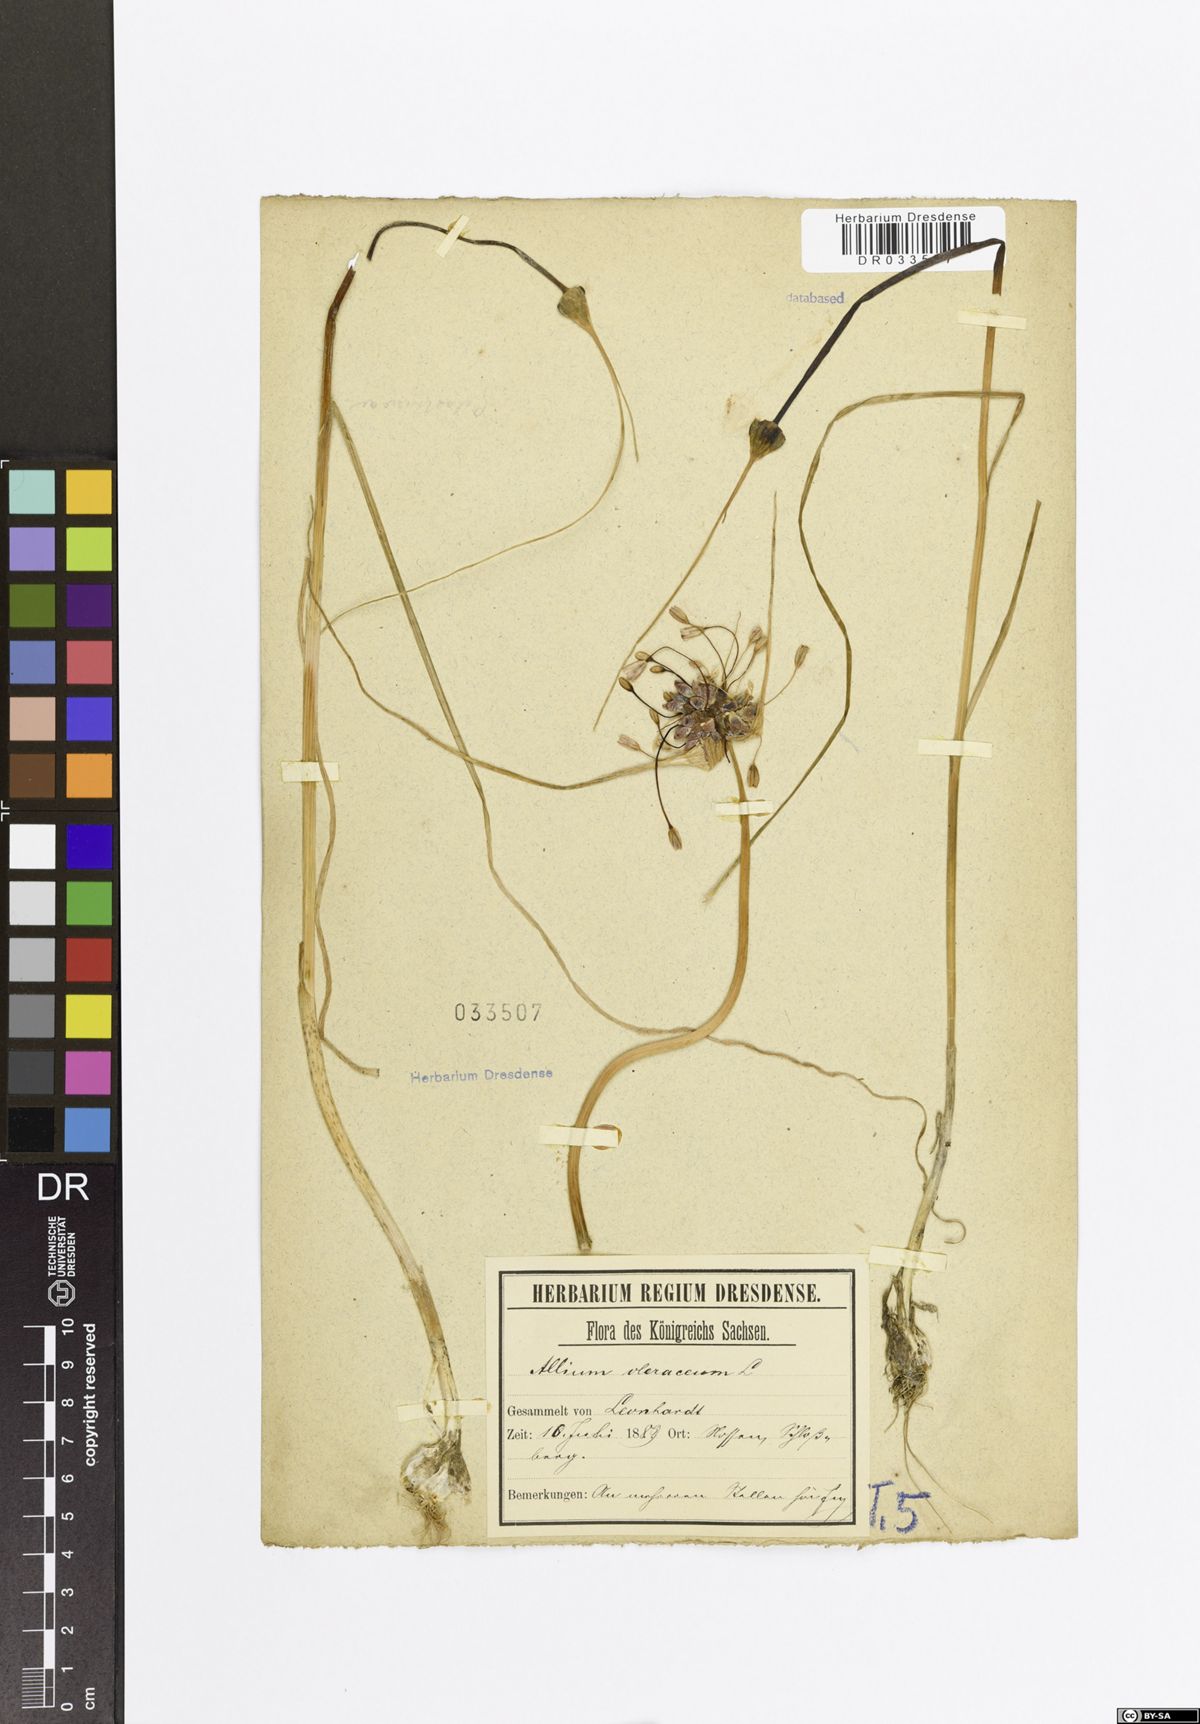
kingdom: Plantae
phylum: Tracheophyta
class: Liliopsida
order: Asparagales
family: Amaryllidaceae
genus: Allium
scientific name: Allium oleraceum
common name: Field garlic
